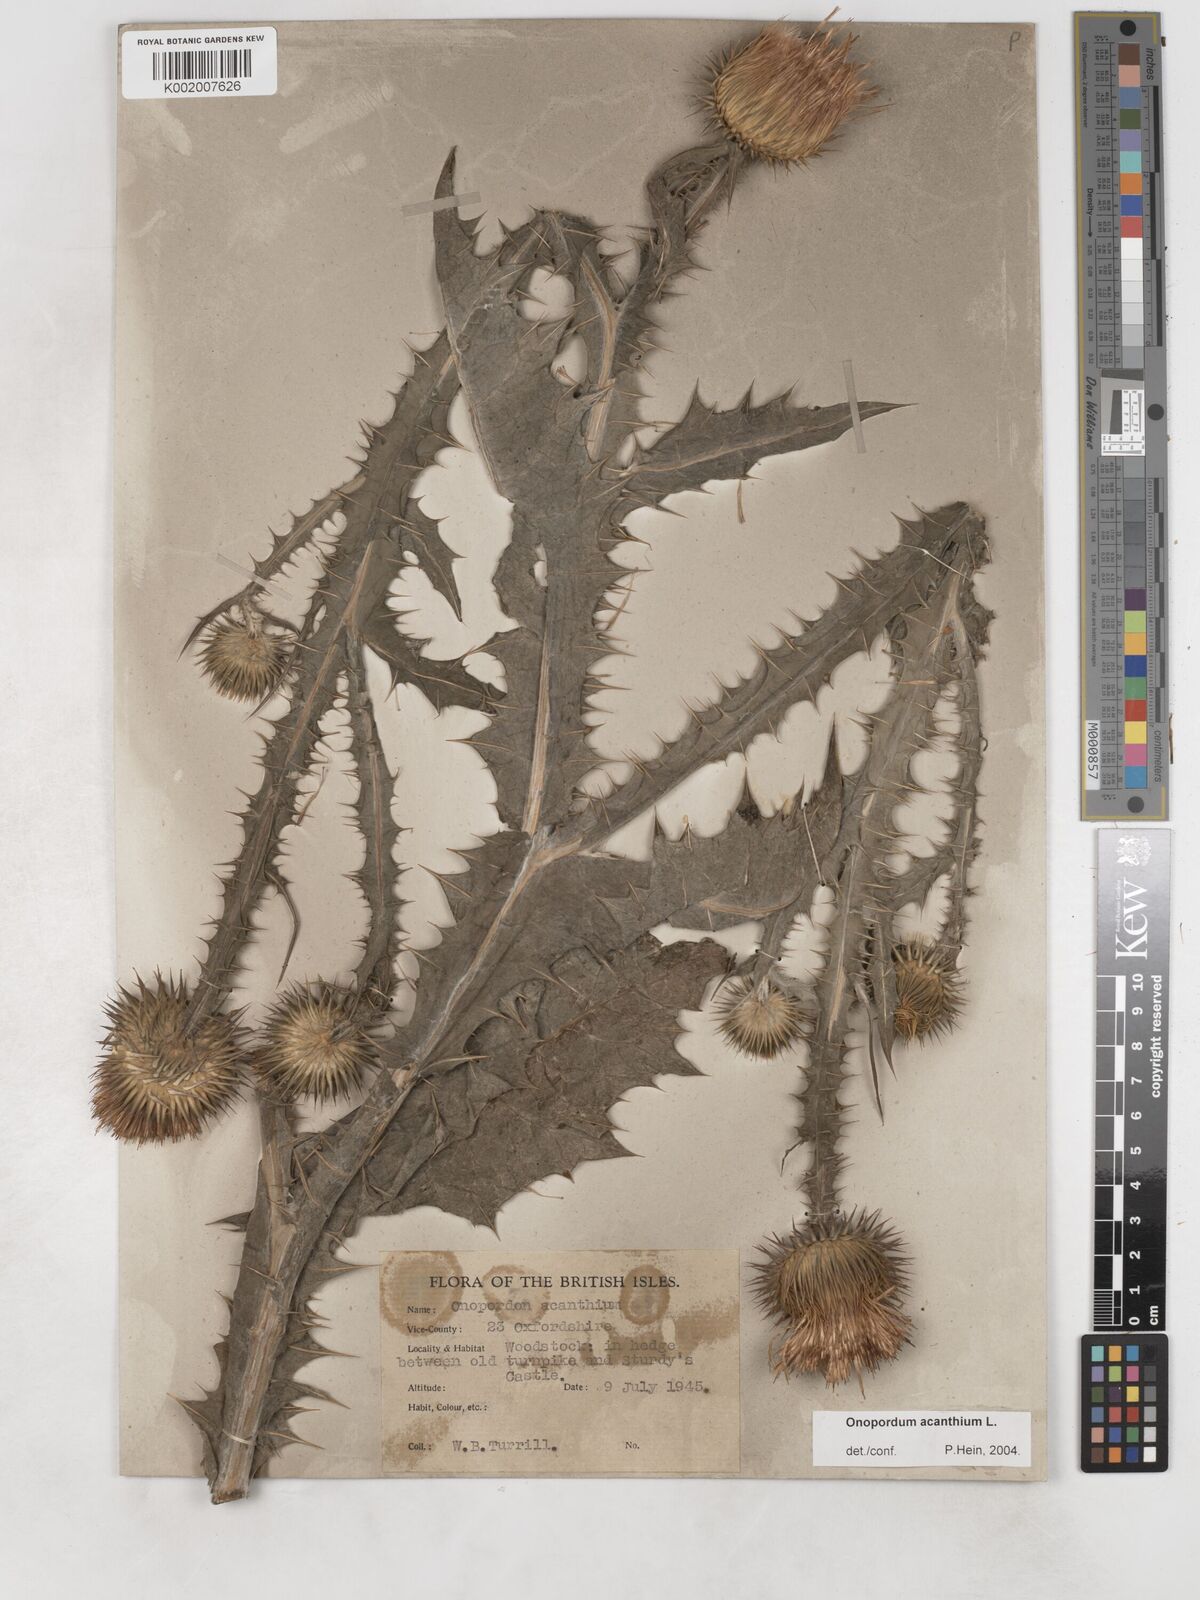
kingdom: Plantae
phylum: Tracheophyta
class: Magnoliopsida
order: Asterales
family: Asteraceae
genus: Onopordum
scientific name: Onopordum acanthium
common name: Scotch thistle
